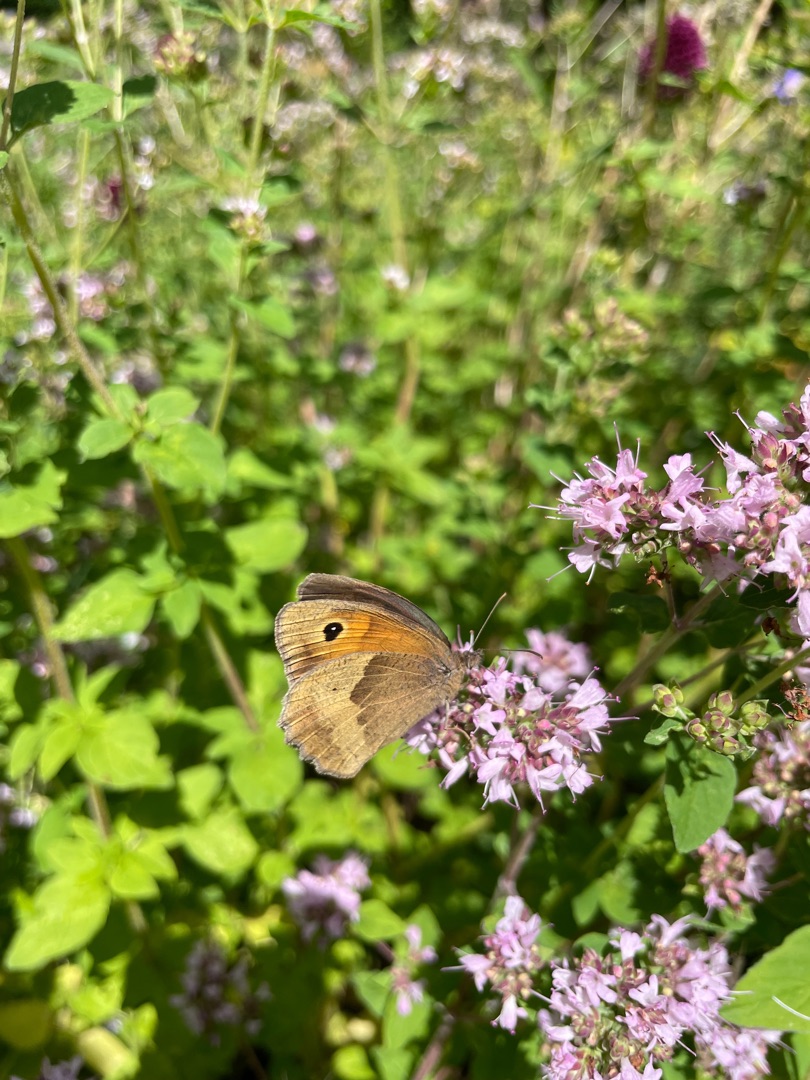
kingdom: Animalia
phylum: Arthropoda
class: Insecta
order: Lepidoptera
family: Nymphalidae
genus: Maniola
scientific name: Maniola jurtina
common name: Græsrandøje
